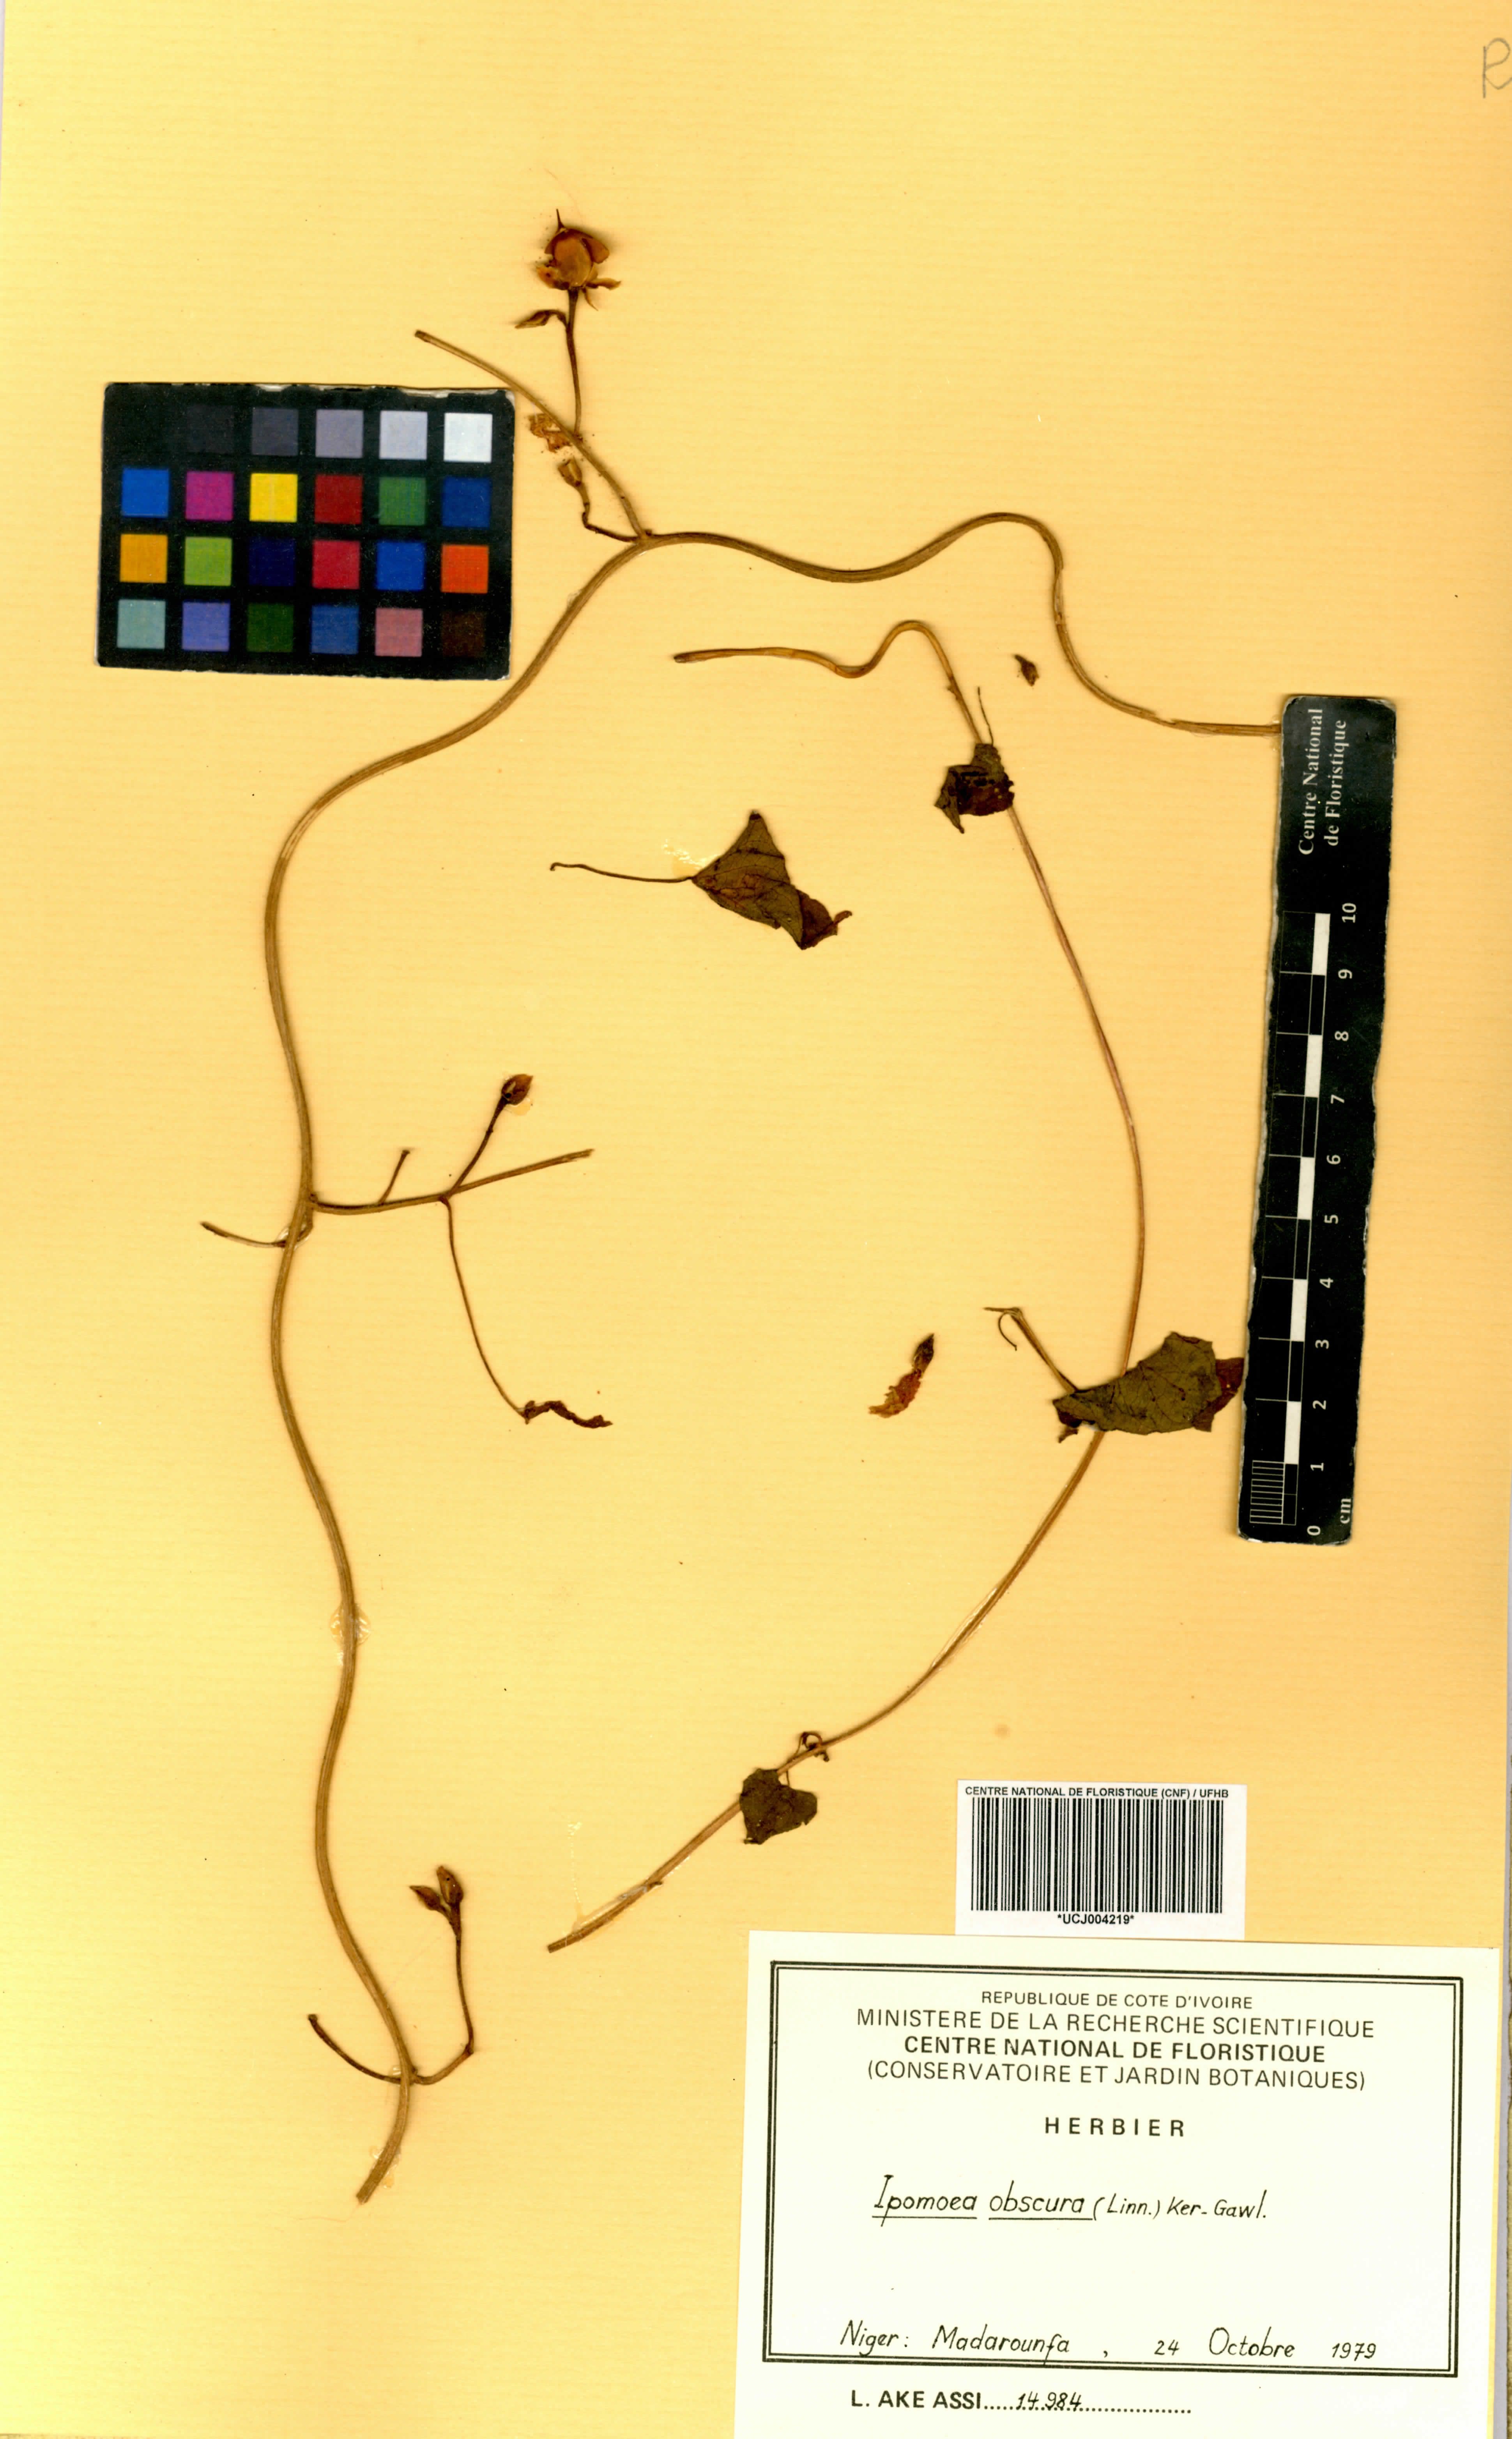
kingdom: Plantae
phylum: Tracheophyta
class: Magnoliopsida
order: Solanales
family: Convolvulaceae
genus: Ipomoea
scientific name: Ipomoea obscura
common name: Obscure morning-glory
